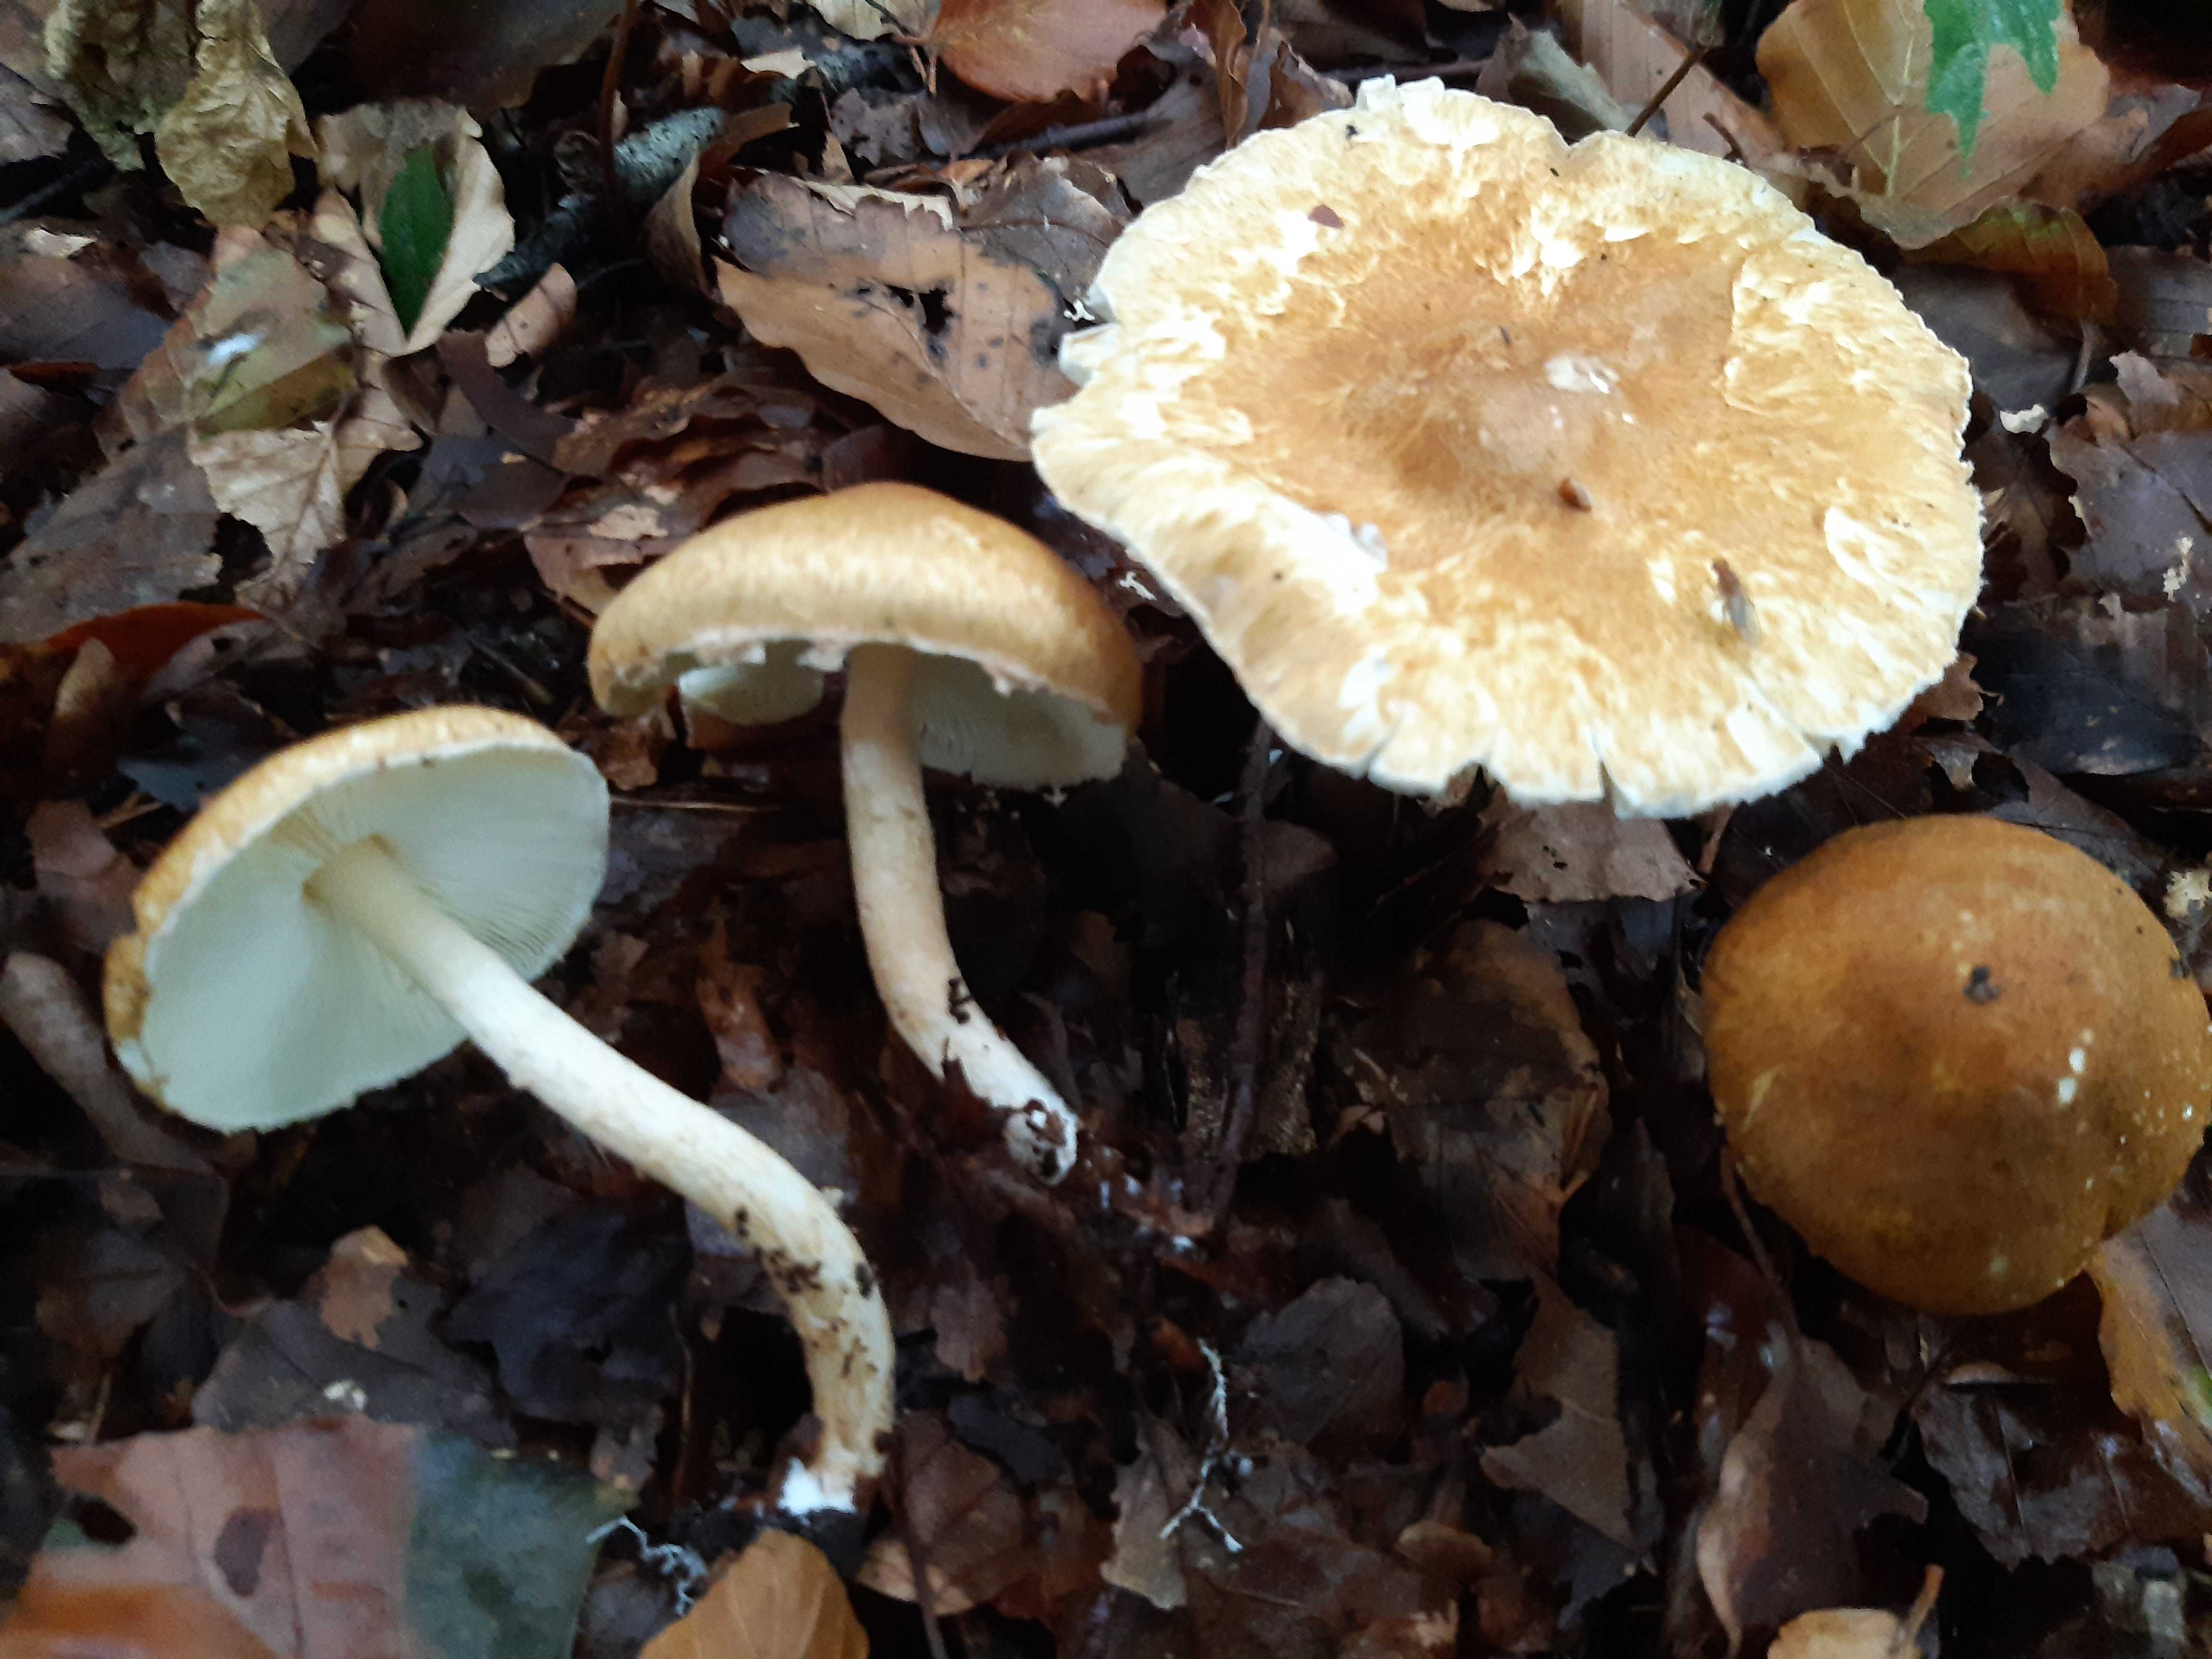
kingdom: Fungi
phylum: Basidiomycota
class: Agaricomycetes
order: Agaricales
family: Agaricaceae
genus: Leucocoprinus
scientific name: Leucocoprinus straminellus
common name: rustbrun parasolhat
